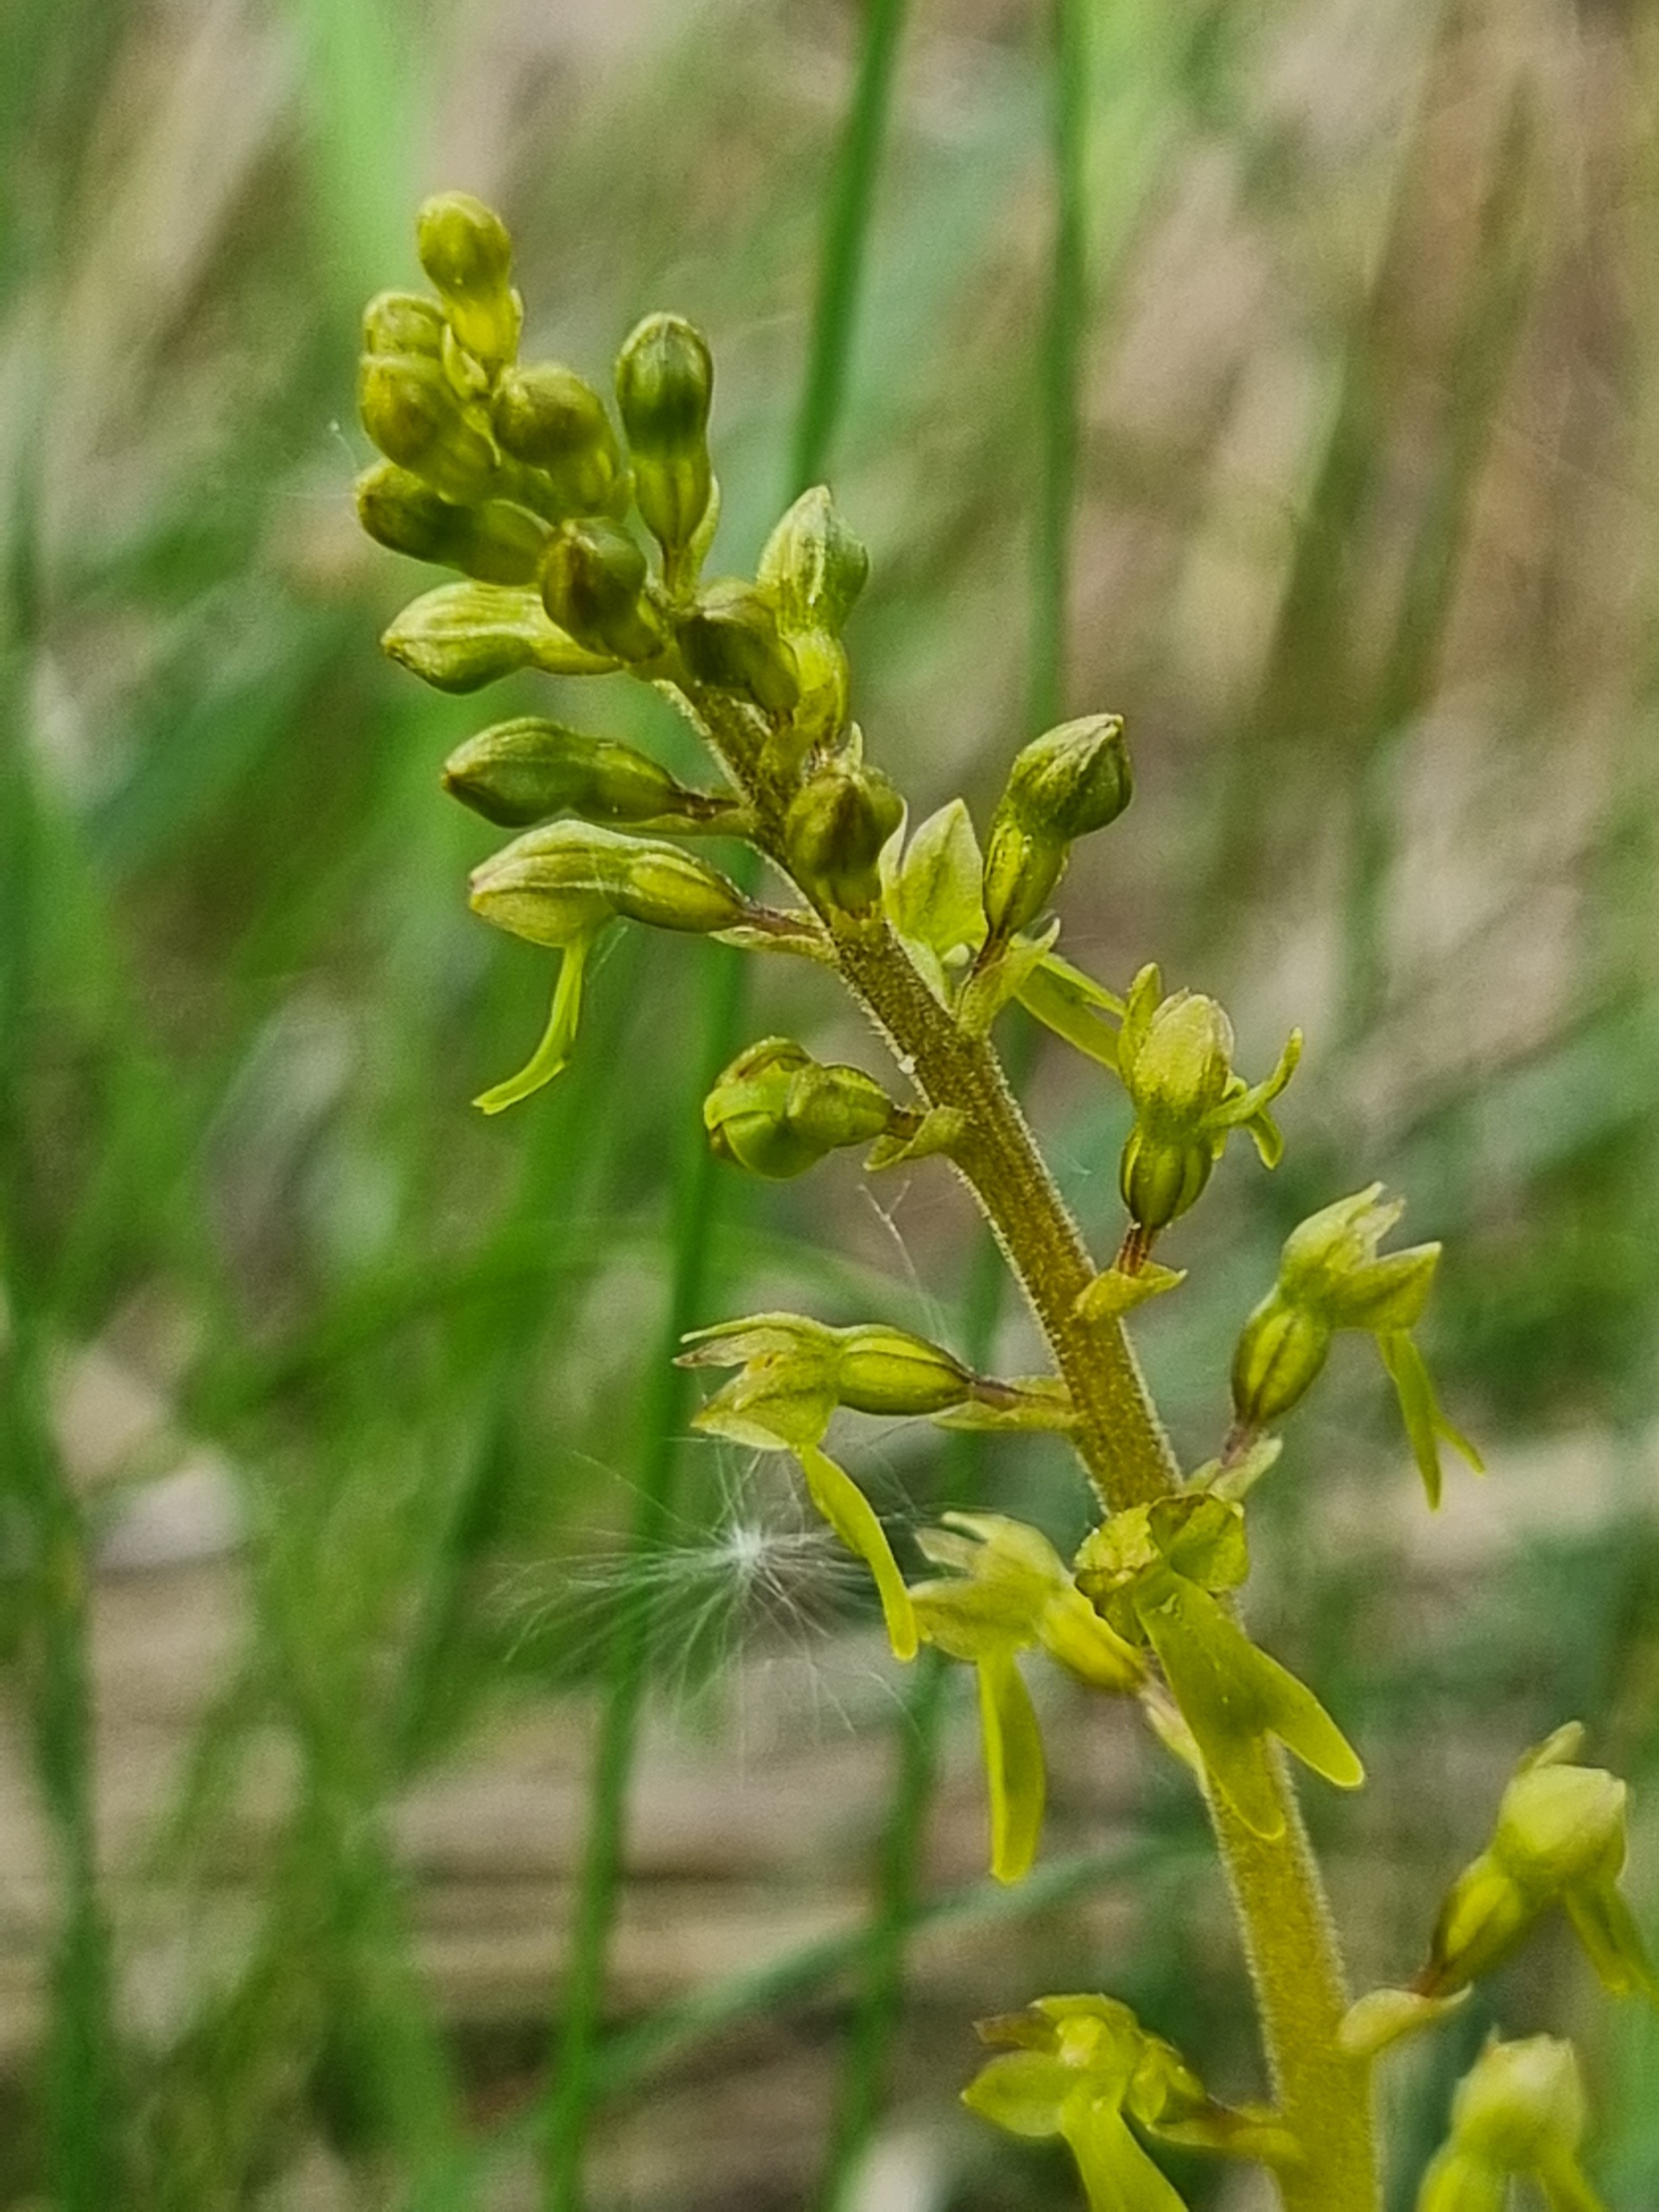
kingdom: Plantae
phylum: Tracheophyta
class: Liliopsida
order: Asparagales
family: Orchidaceae
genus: Neottia
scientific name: Neottia ovata
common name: Ægbladet fliglæbe
